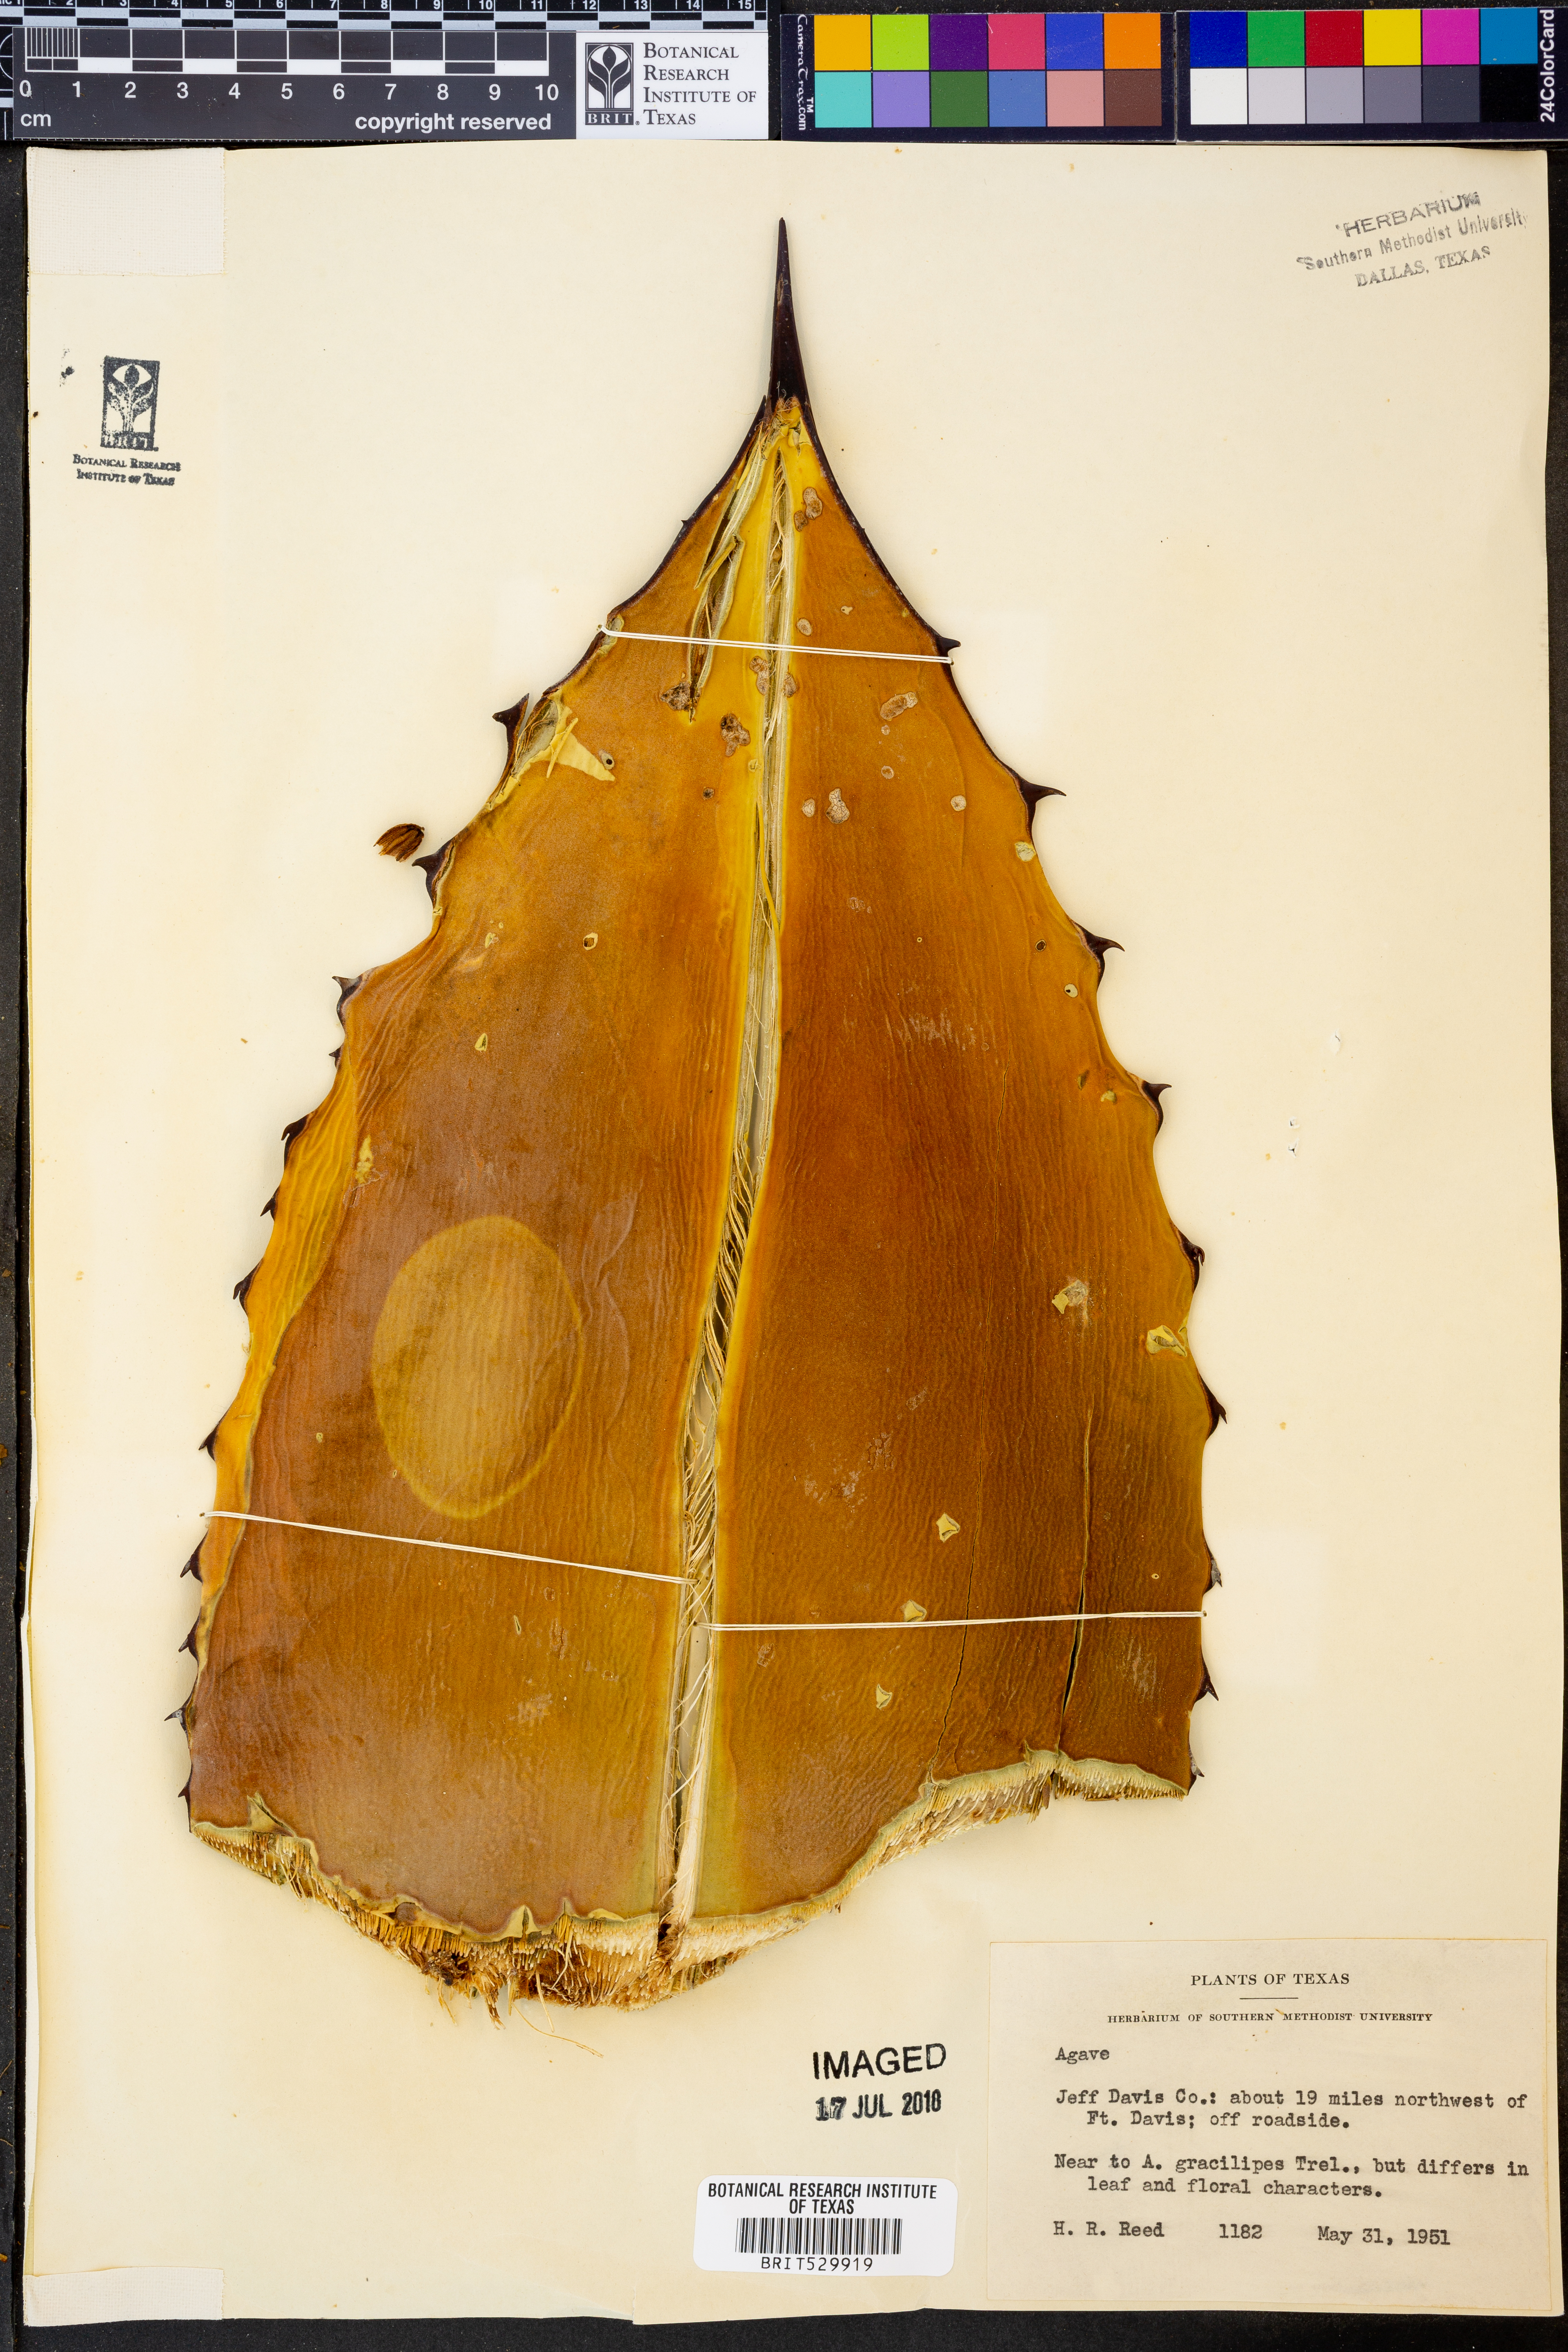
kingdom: Plantae
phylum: Tracheophyta
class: Liliopsida
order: Asparagales
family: Asparagaceae
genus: Agave
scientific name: Agave
